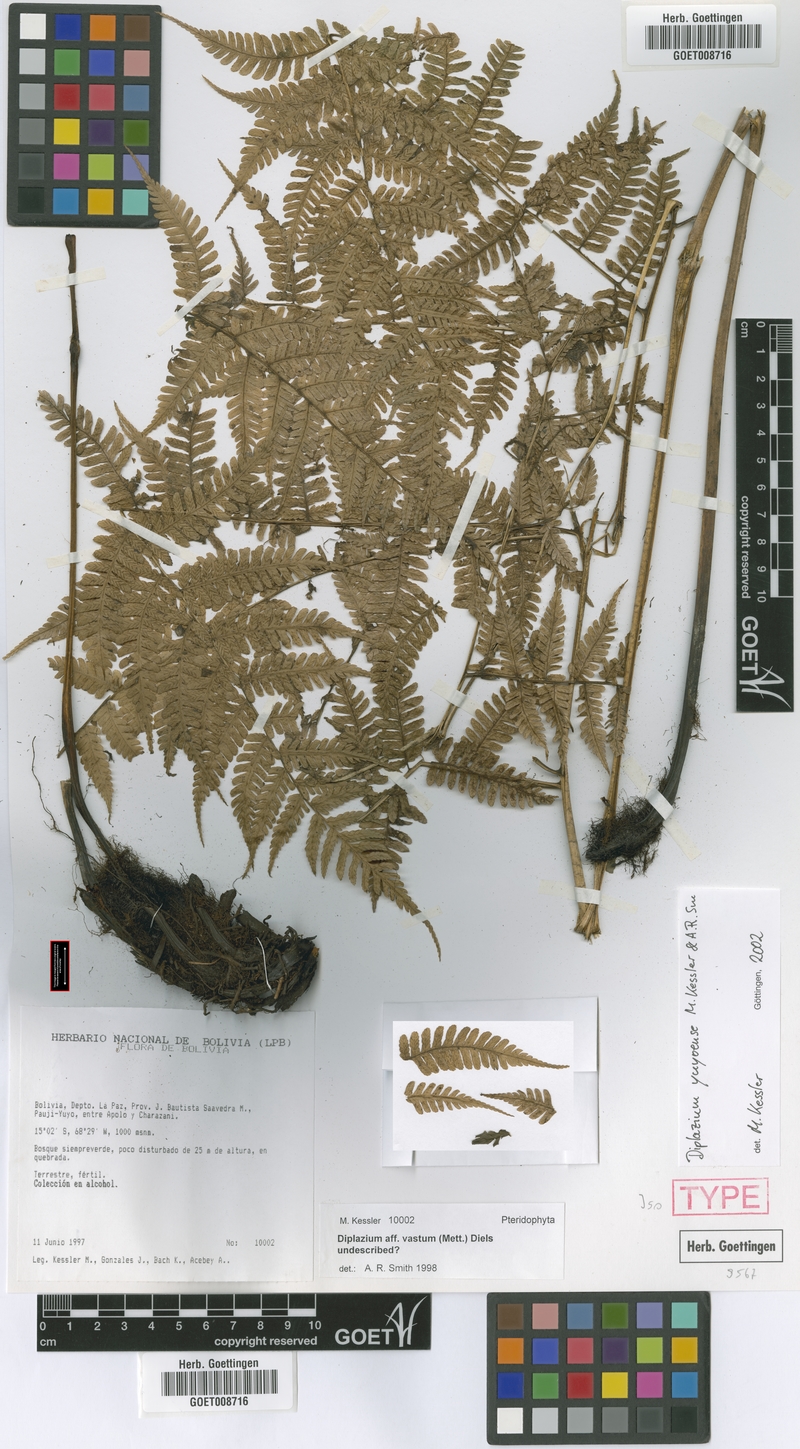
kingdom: Plantae
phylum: Tracheophyta
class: Polypodiopsida
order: Polypodiales
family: Athyriaceae
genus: Diplazium
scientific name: Diplazium yuyoense
